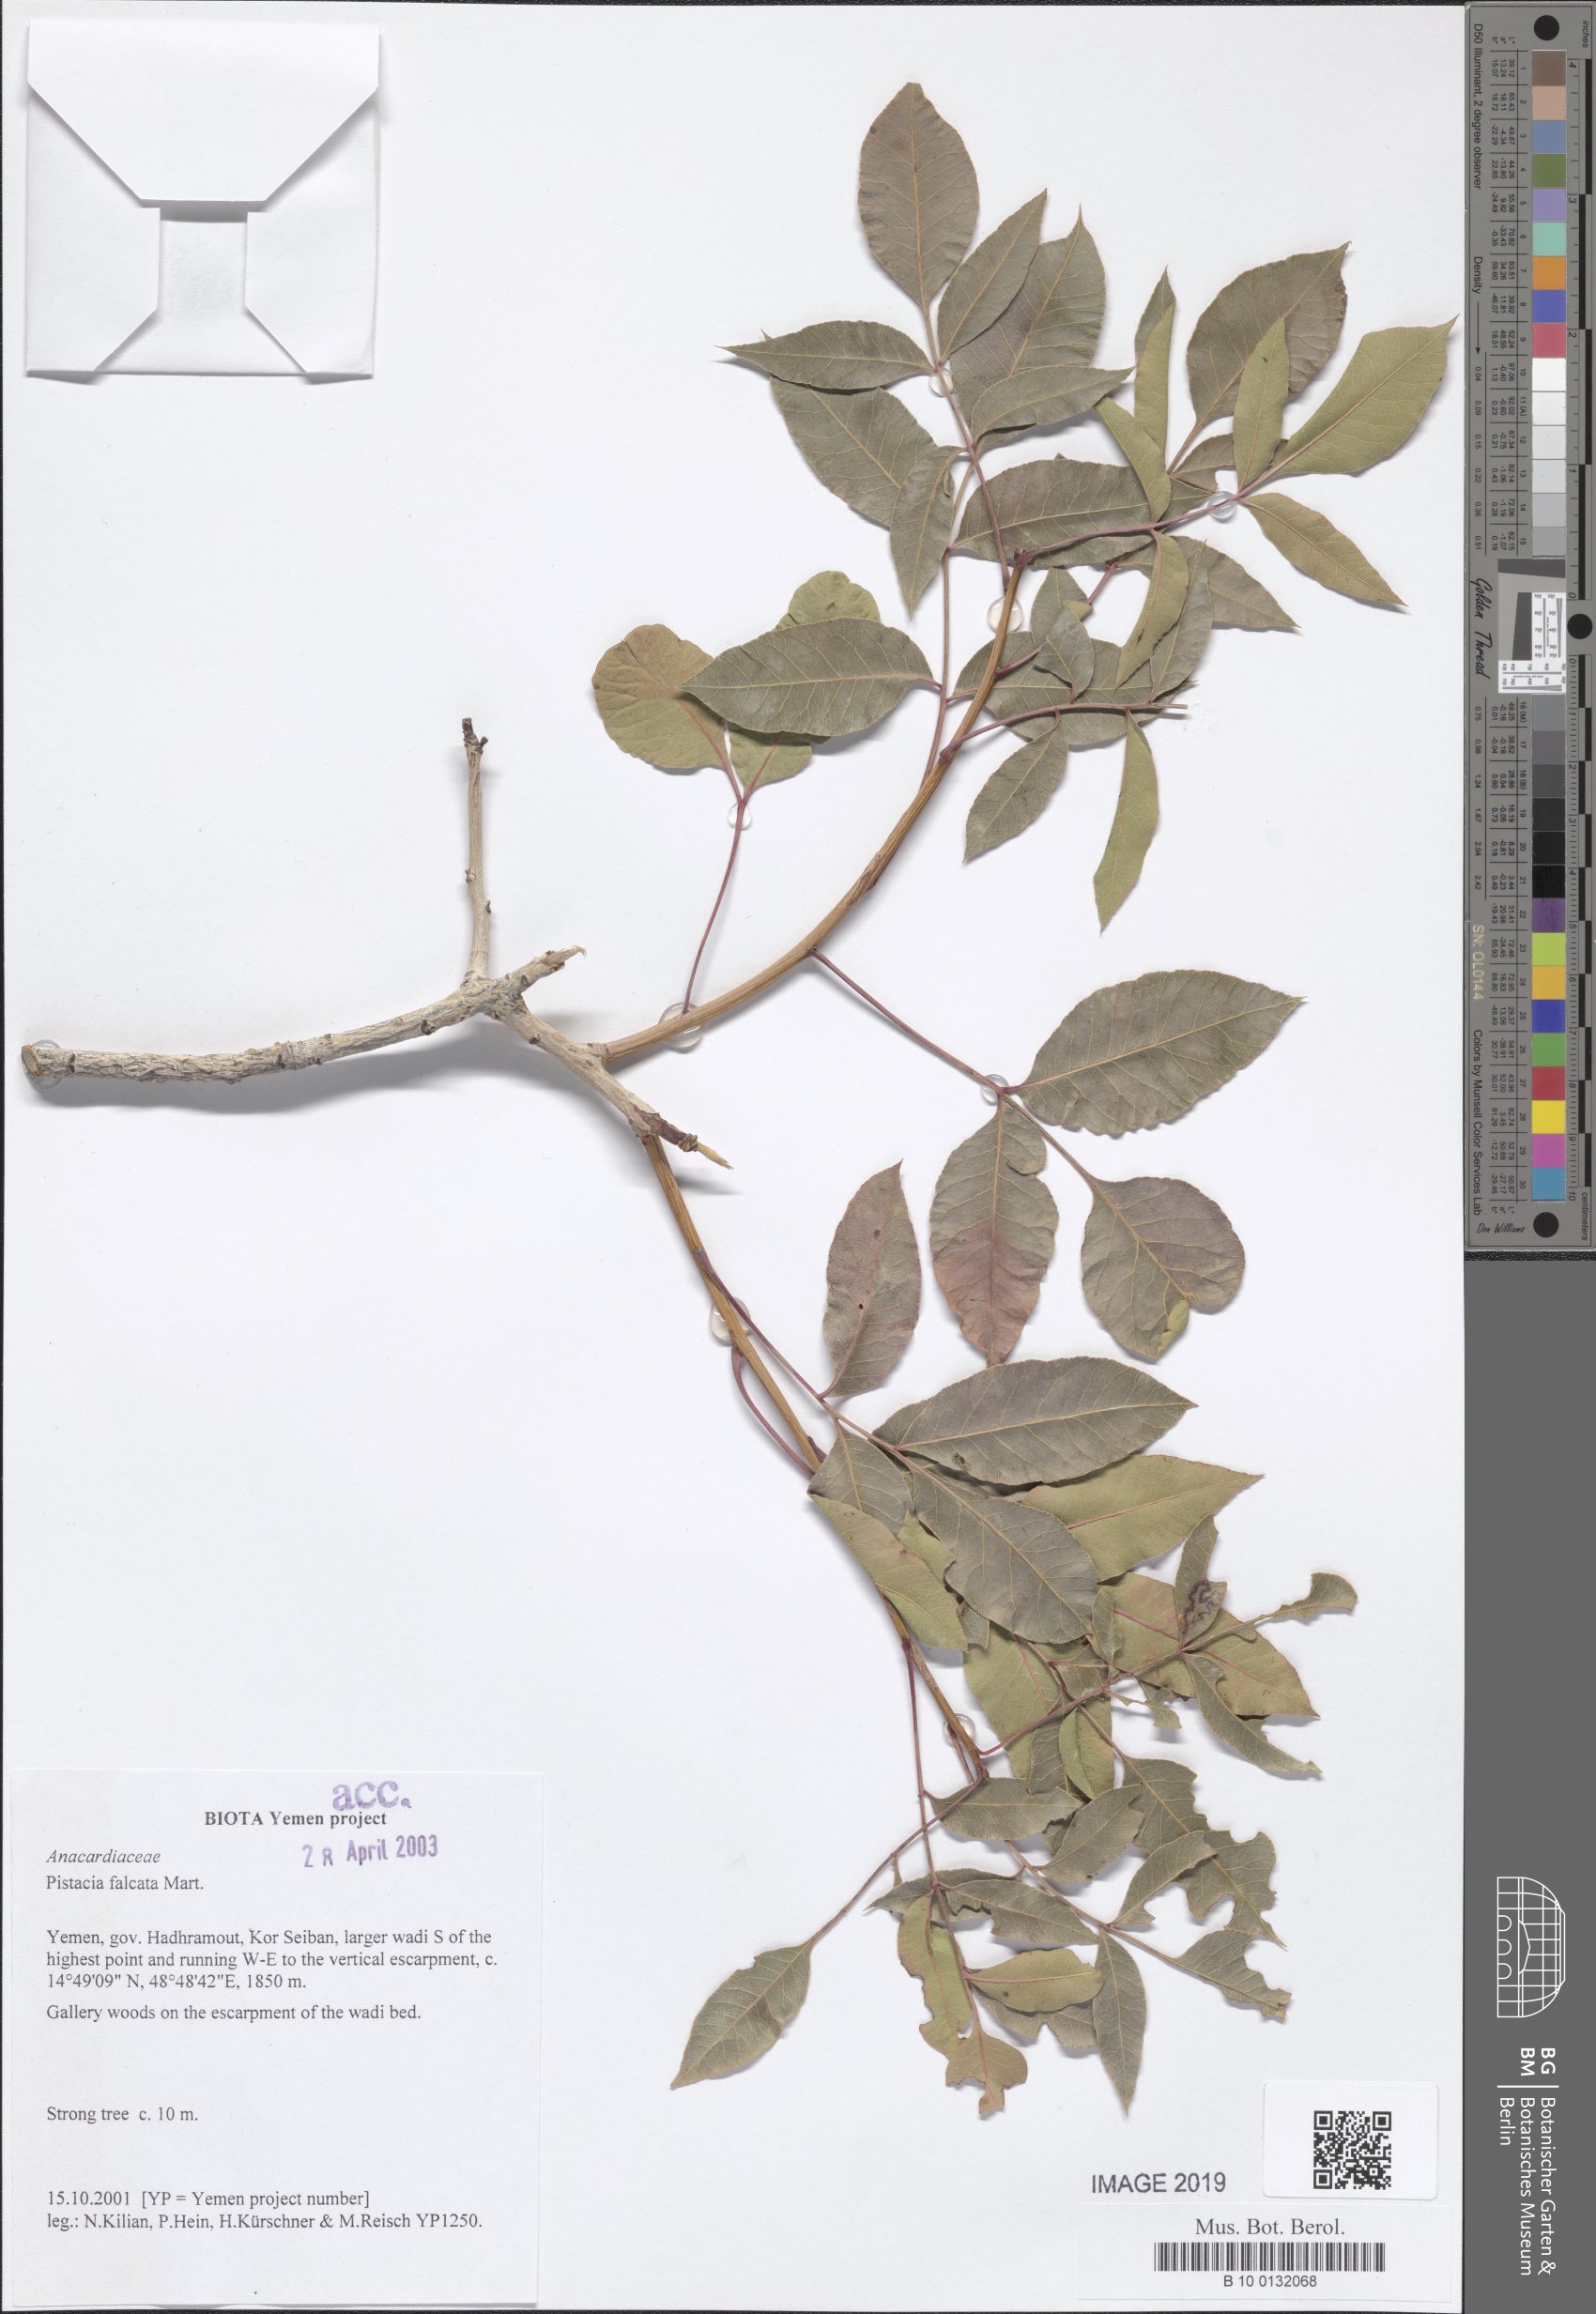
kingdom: Plantae
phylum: Tracheophyta
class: Magnoliopsida
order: Sapindales
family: Anacardiaceae
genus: Pistacia
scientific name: Pistacia falcata
